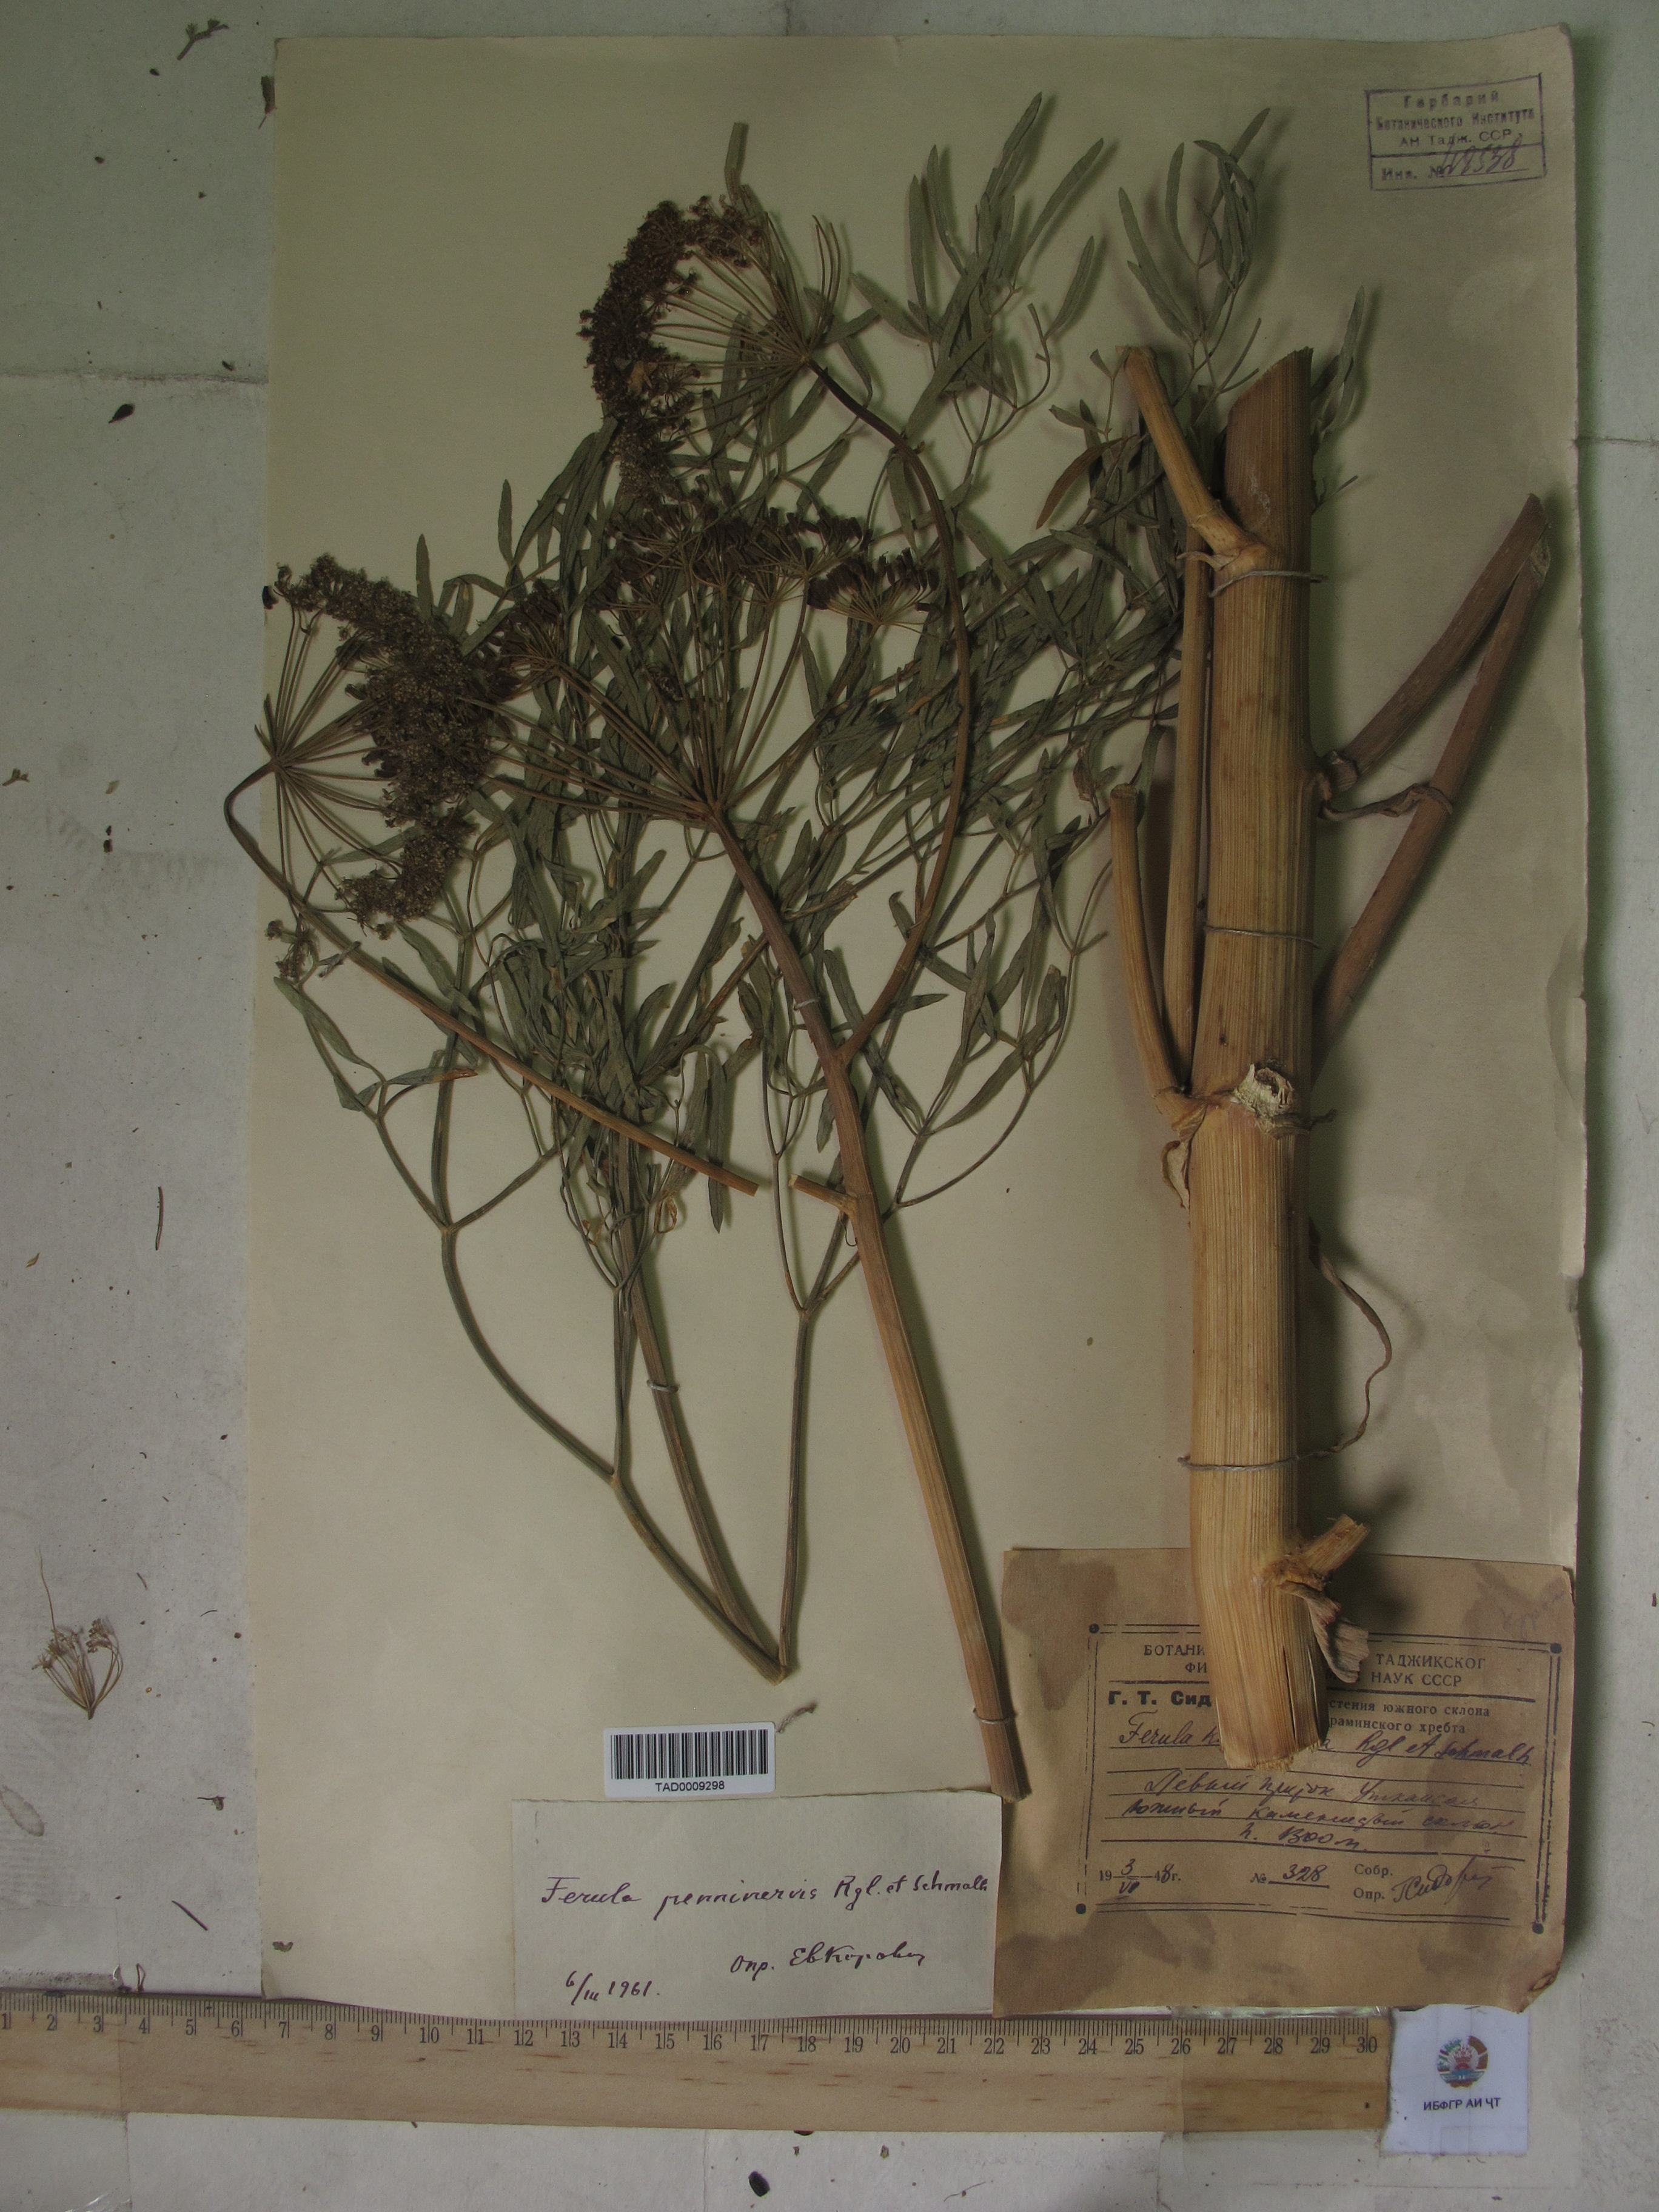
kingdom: Plantae
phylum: Tracheophyta
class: Magnoliopsida
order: Apiales
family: Apiaceae
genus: Ferula
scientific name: Ferula karatavica
